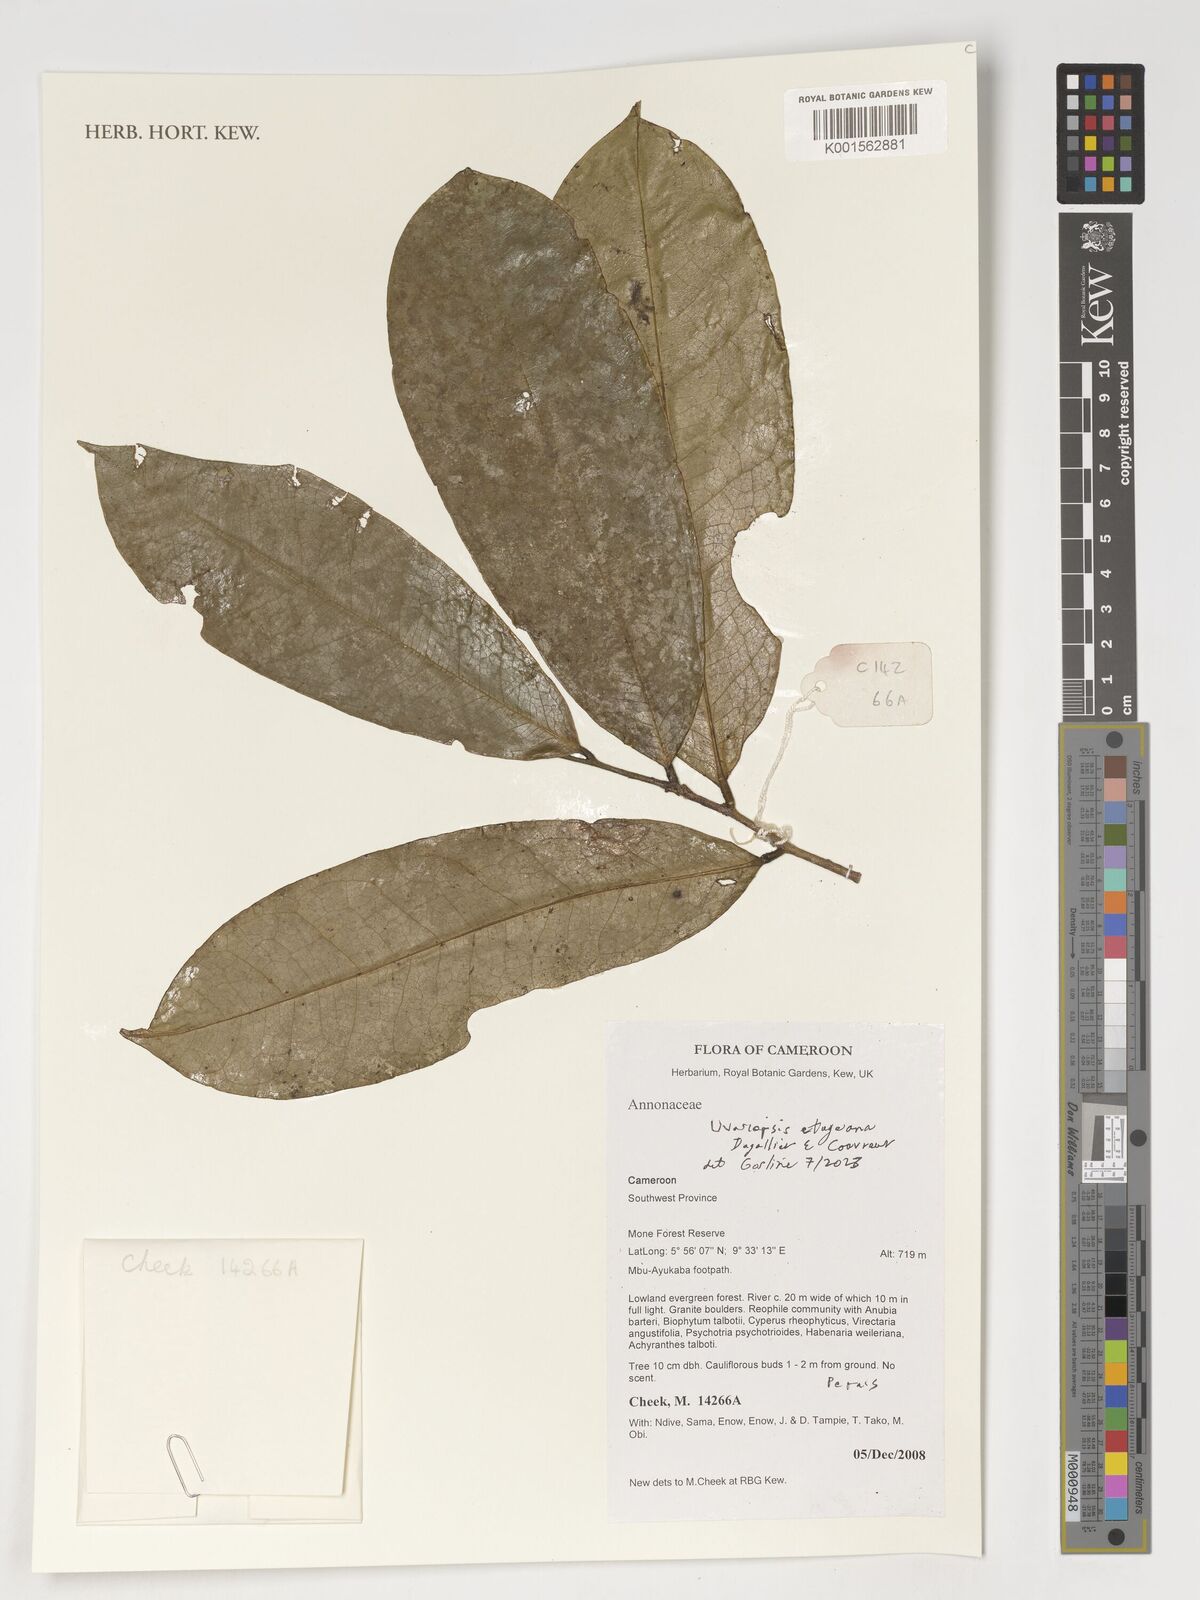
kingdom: Plantae
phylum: Tracheophyta
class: Magnoliopsida
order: Magnoliales
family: Annonaceae
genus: Uvariopsis
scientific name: Uvariopsis
